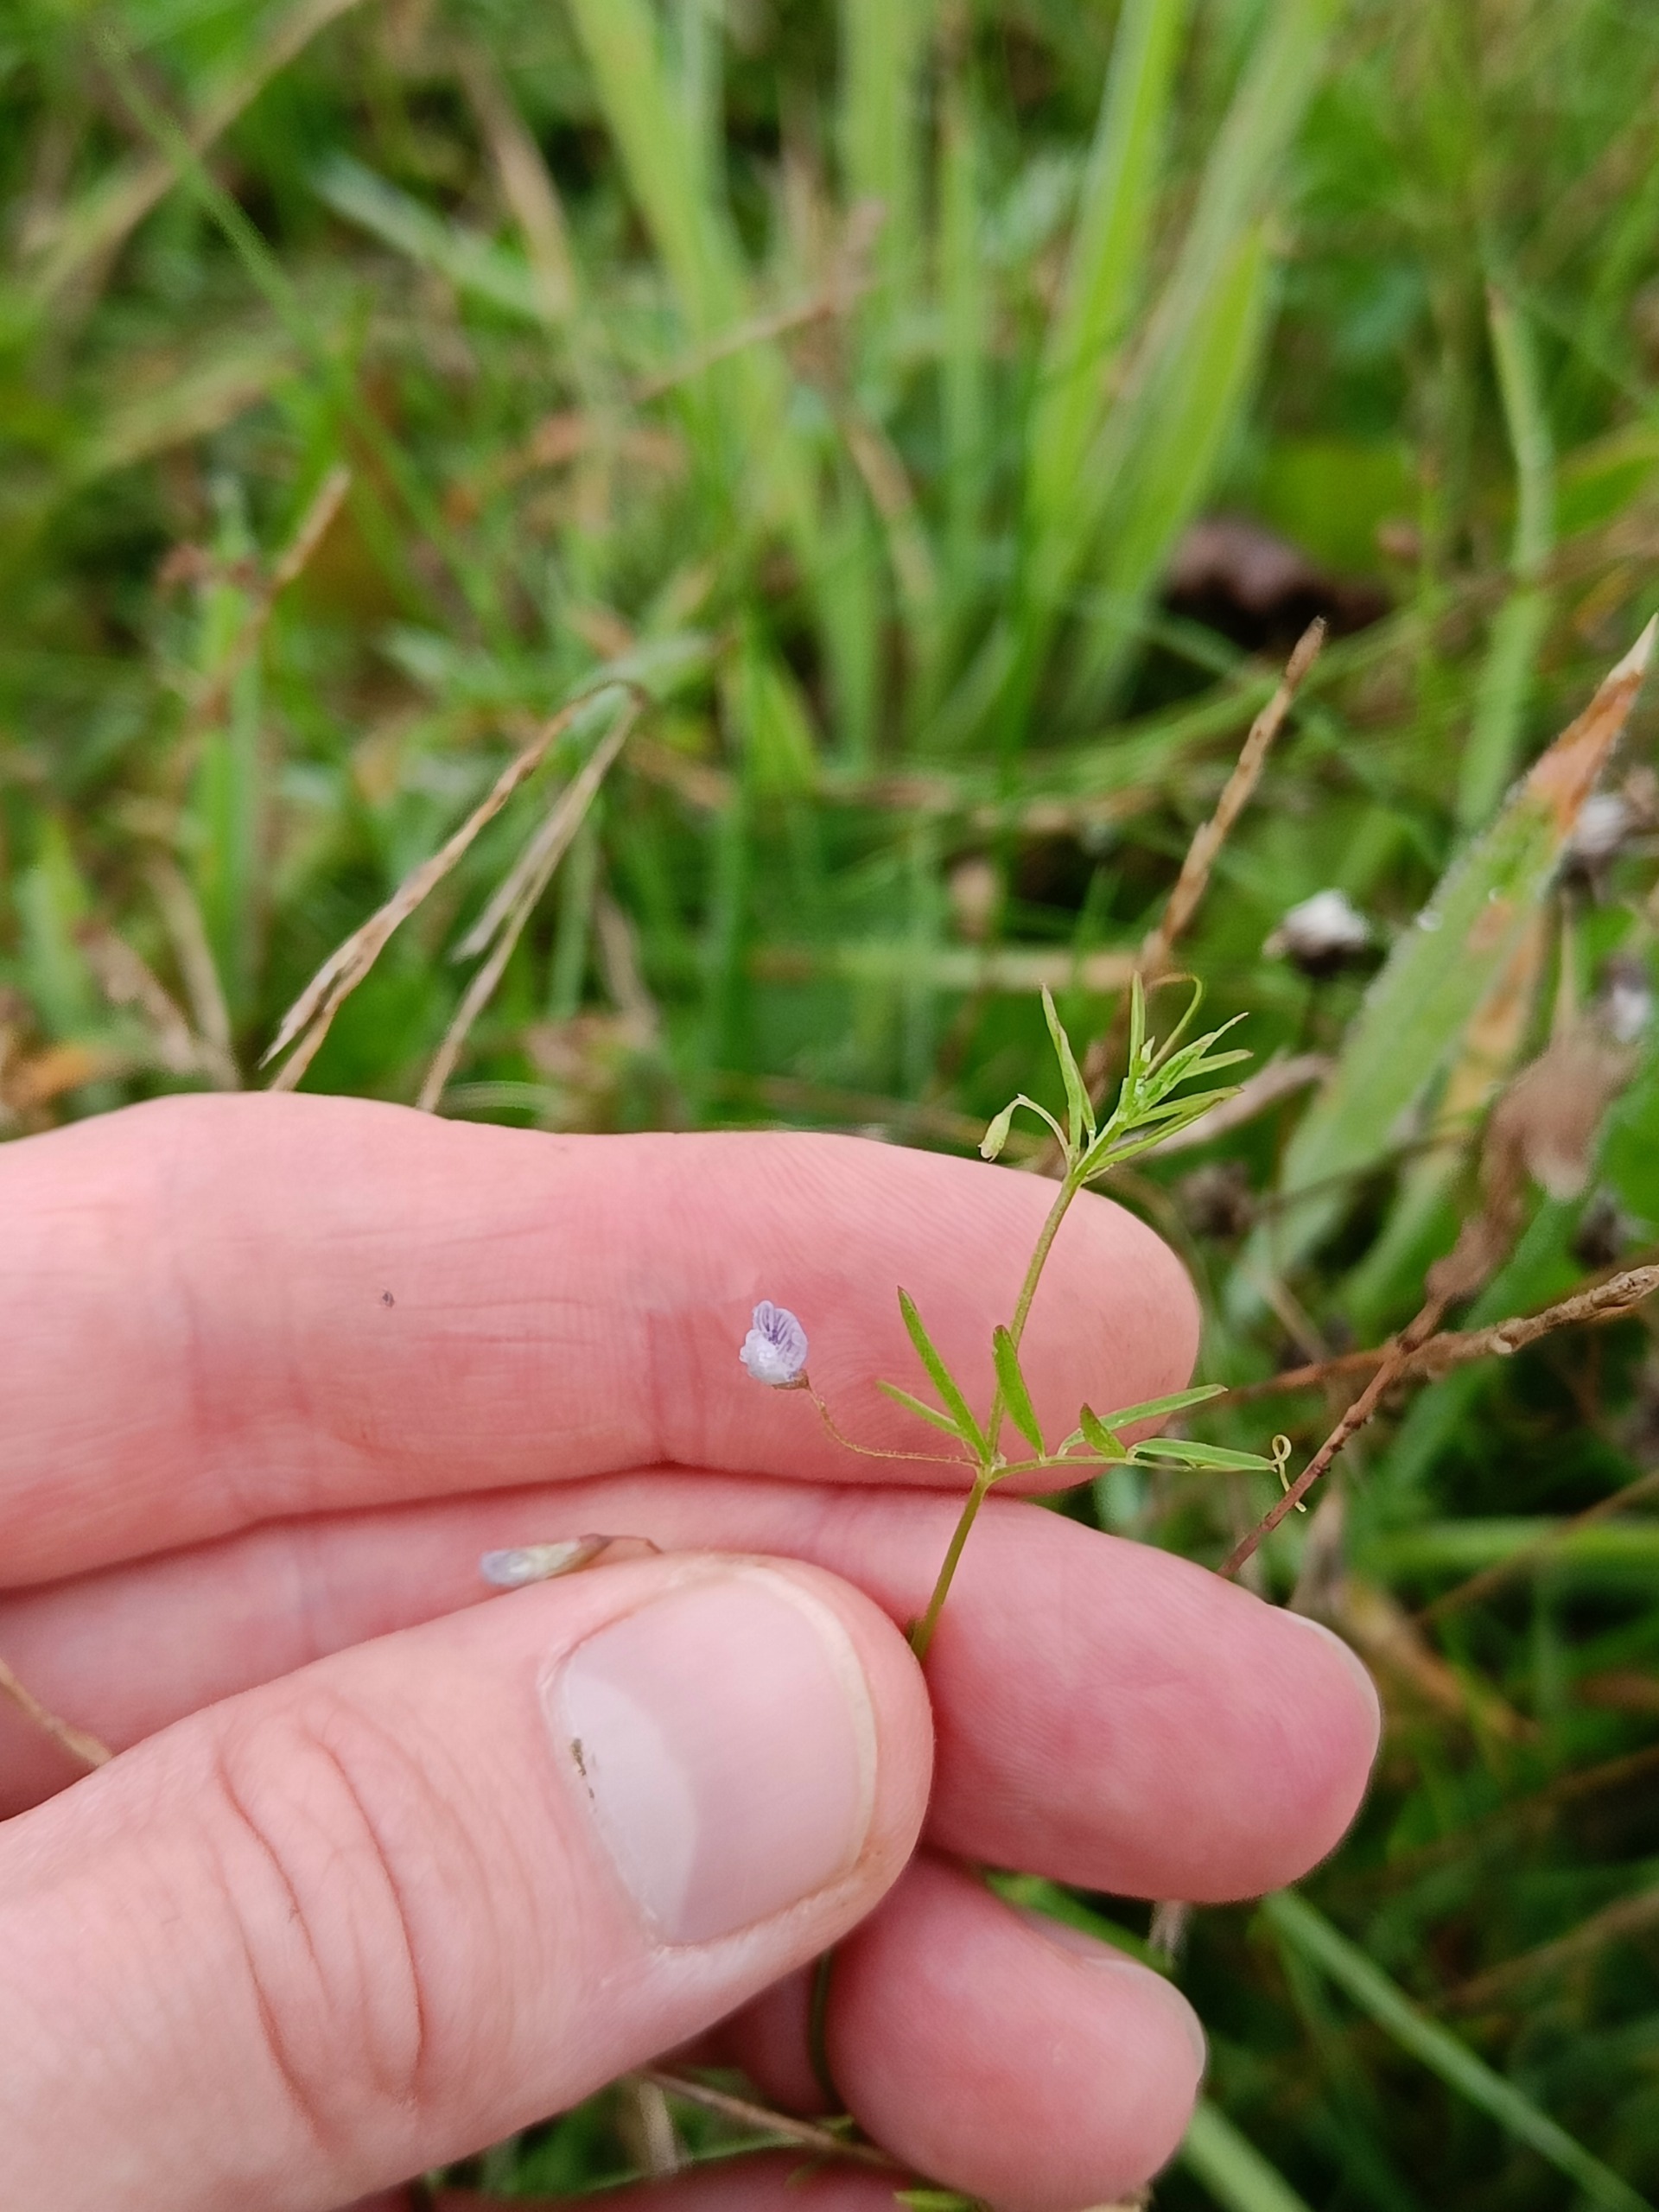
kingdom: Plantae
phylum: Tracheophyta
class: Magnoliopsida
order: Fabales
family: Fabaceae
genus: Vicia
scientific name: Vicia tetrasperma
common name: Tadder-vikke
